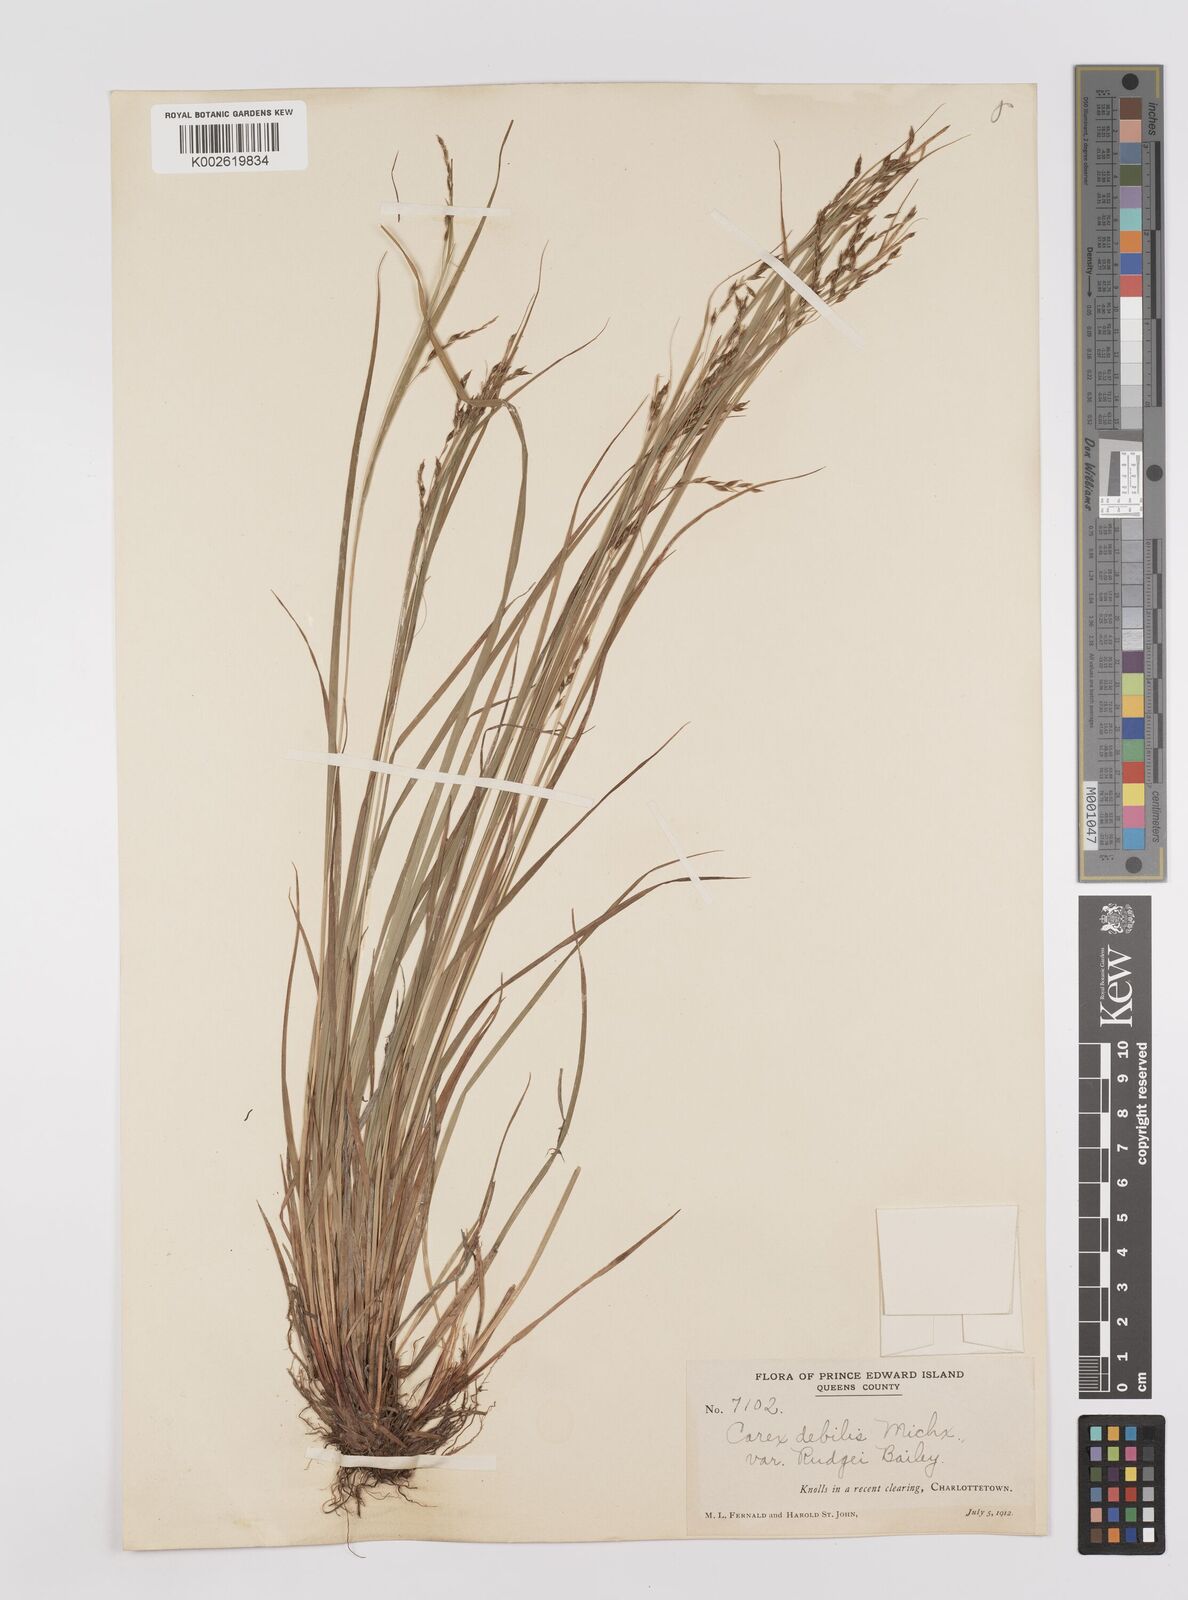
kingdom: Plantae
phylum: Tracheophyta
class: Liliopsida
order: Poales
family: Cyperaceae
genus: Carex
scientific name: Carex debilis
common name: White-edge sedge
